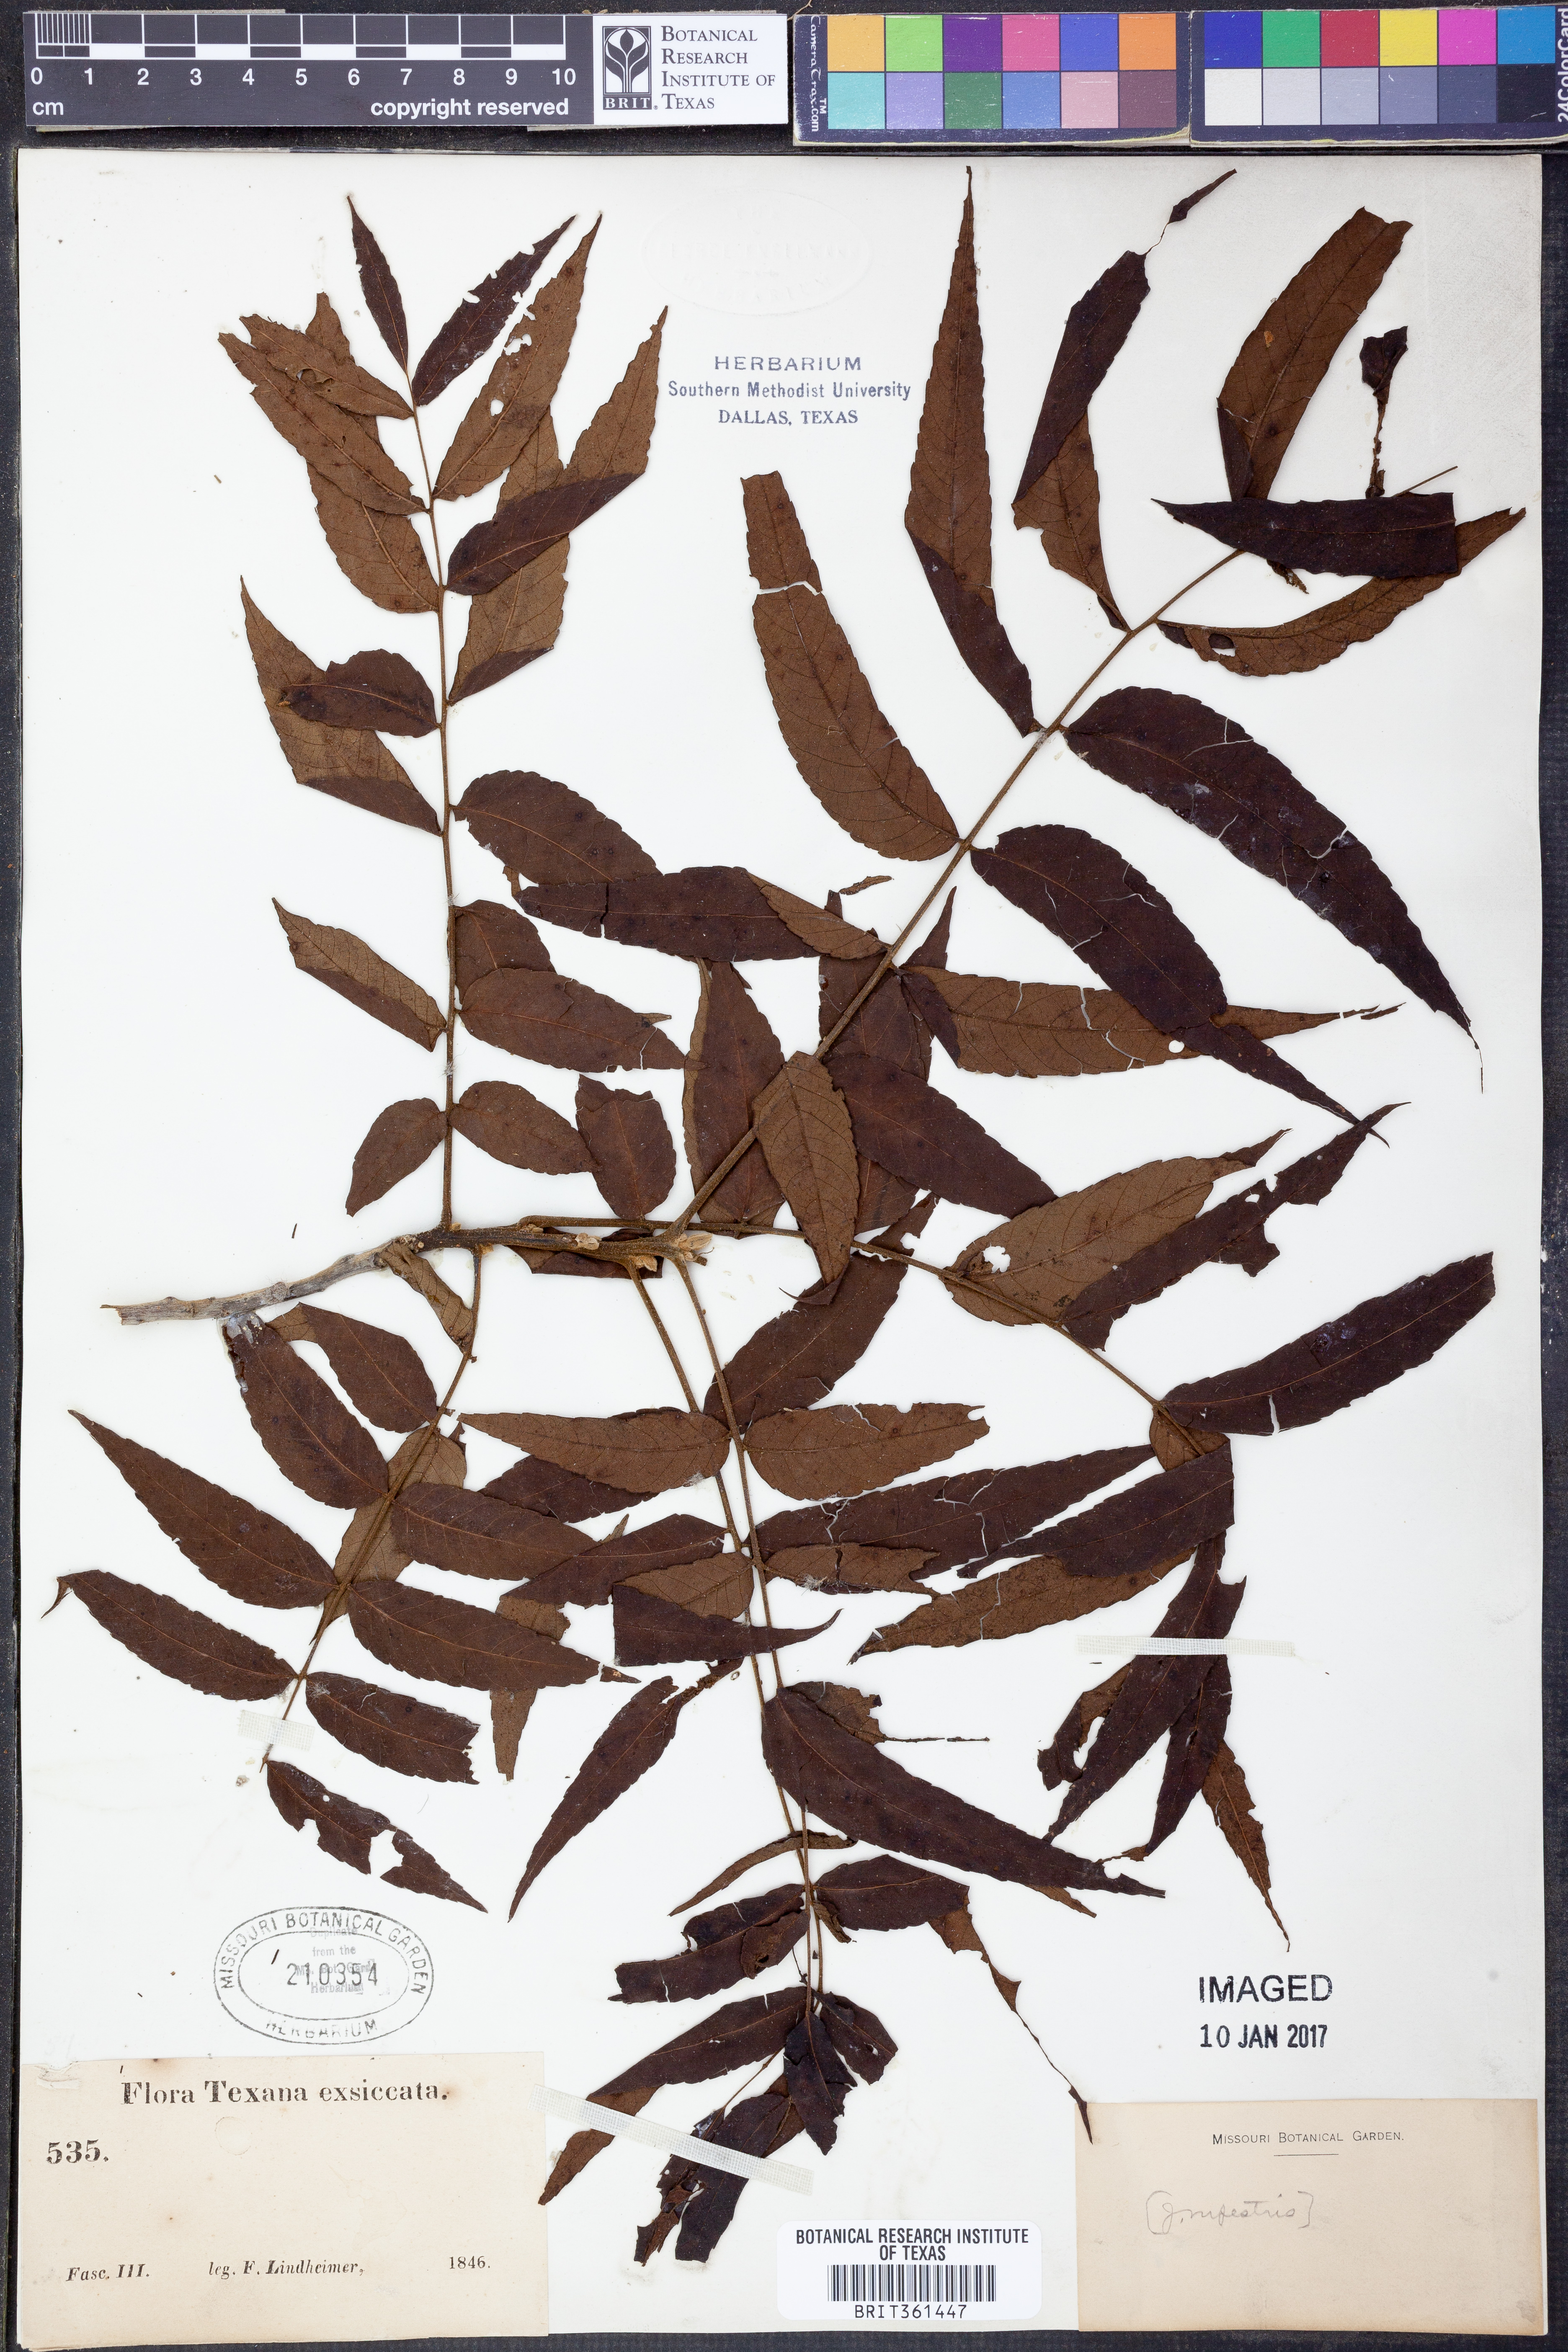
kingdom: Plantae
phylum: Tracheophyta
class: Magnoliopsida
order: Fagales
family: Juglandaceae
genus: Juglans
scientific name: Juglans microcarpa
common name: Texas walnut
